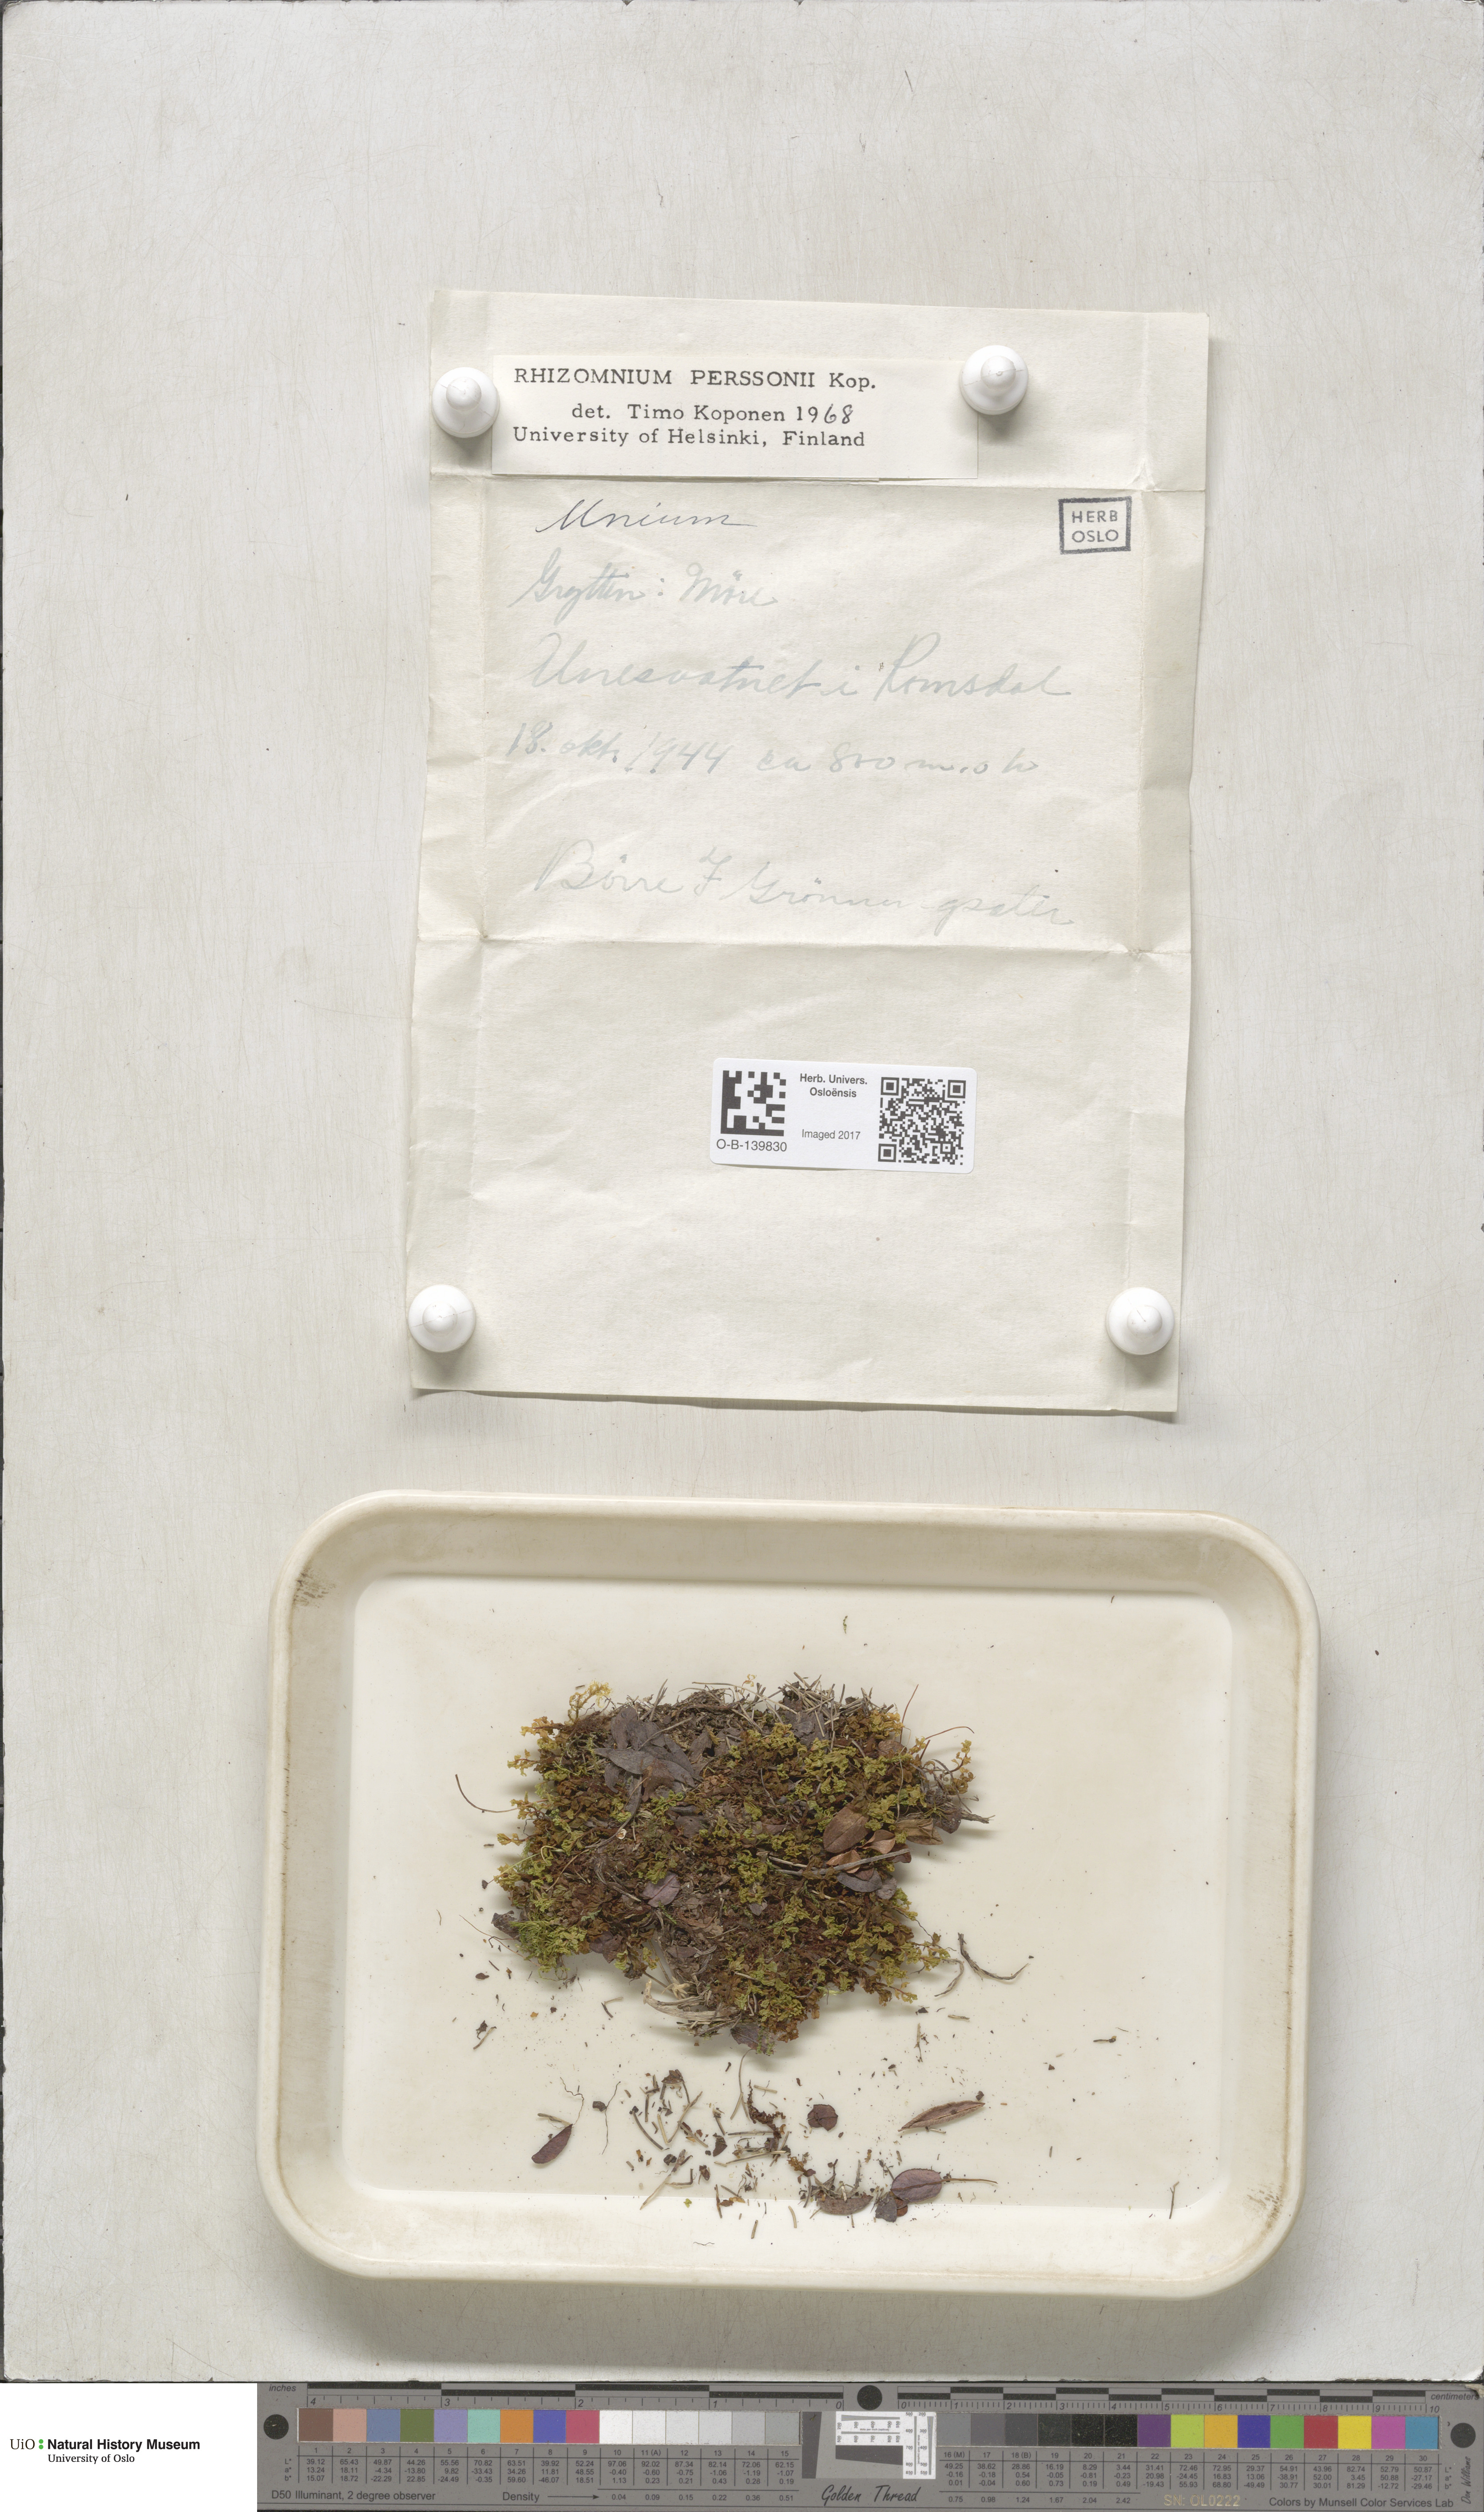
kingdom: Plantae
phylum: Bryophyta
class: Bryopsida
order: Bryales
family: Mniaceae
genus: Rhizomnium
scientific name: Rhizomnium magnifolium
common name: Large-leaved leafy moss
